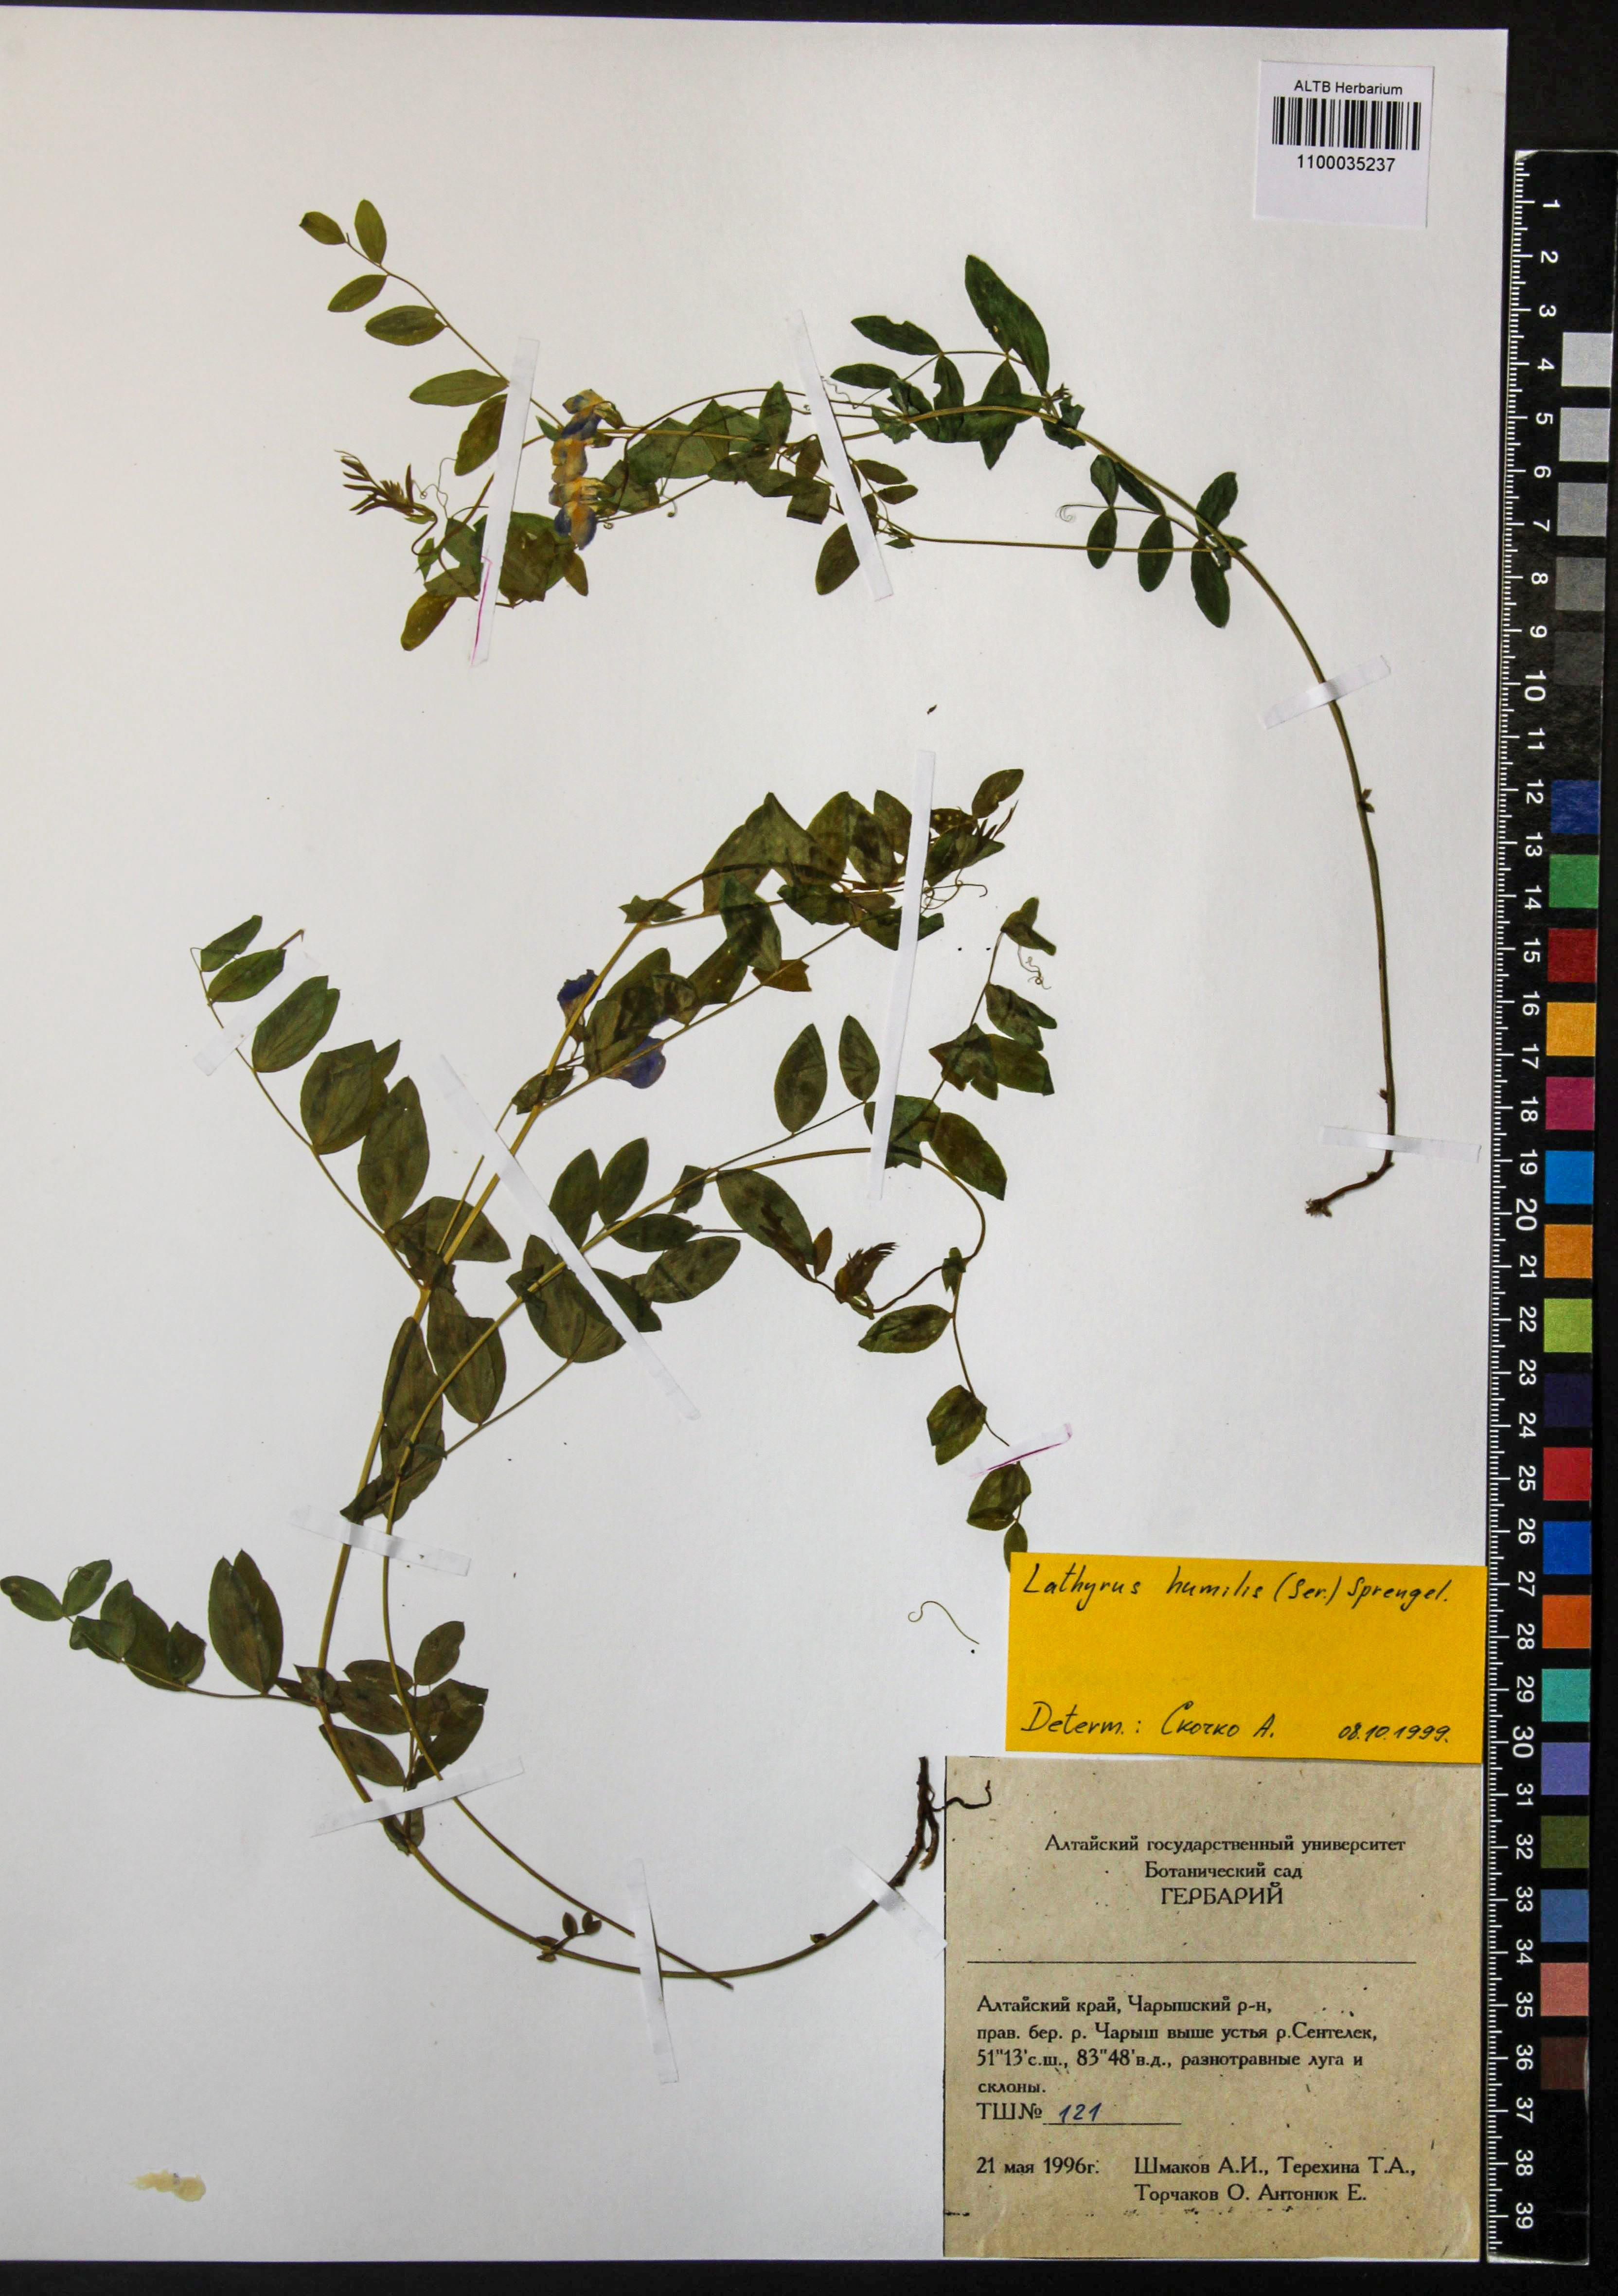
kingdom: Plantae
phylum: Tracheophyta
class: Magnoliopsida
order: Fabales
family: Fabaceae
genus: Lathyrus
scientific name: Lathyrus humilis
